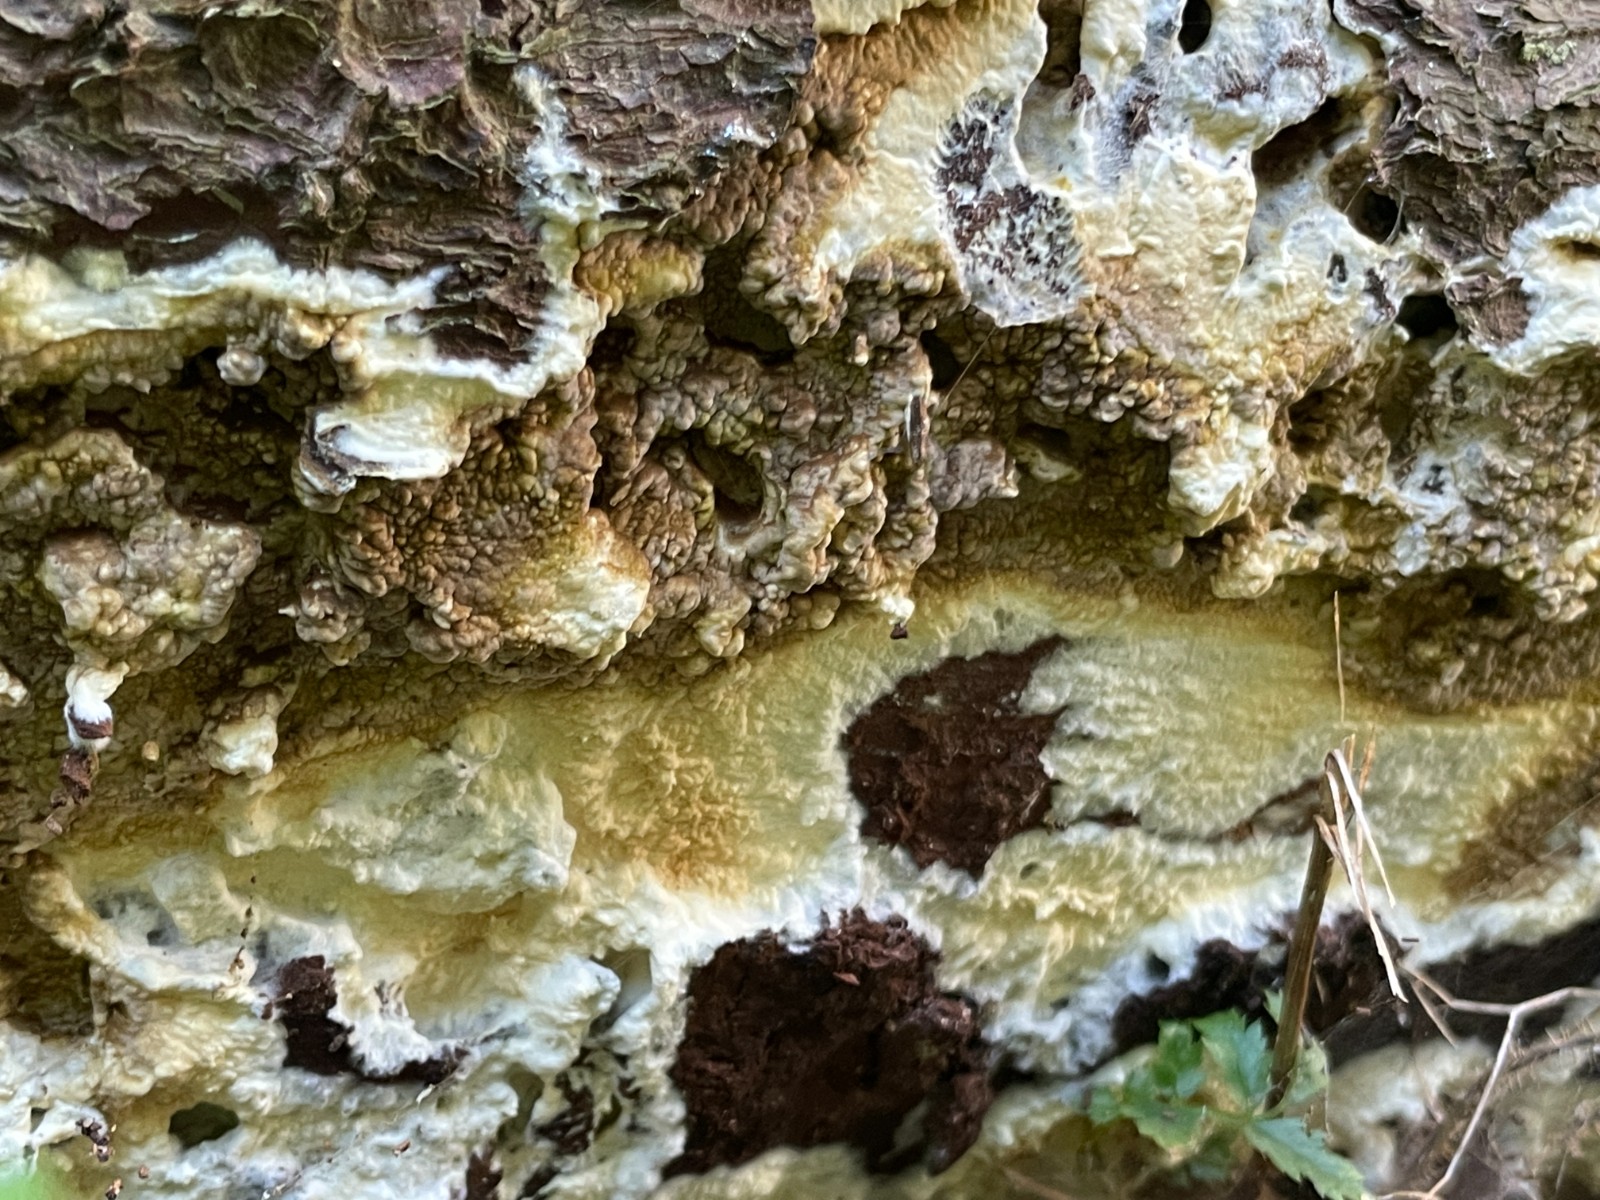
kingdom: Fungi
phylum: Basidiomycota
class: Agaricomycetes
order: Boletales
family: Coniophoraceae
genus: Coniophora
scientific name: Coniophora puteana
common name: gul tømmersvamp
